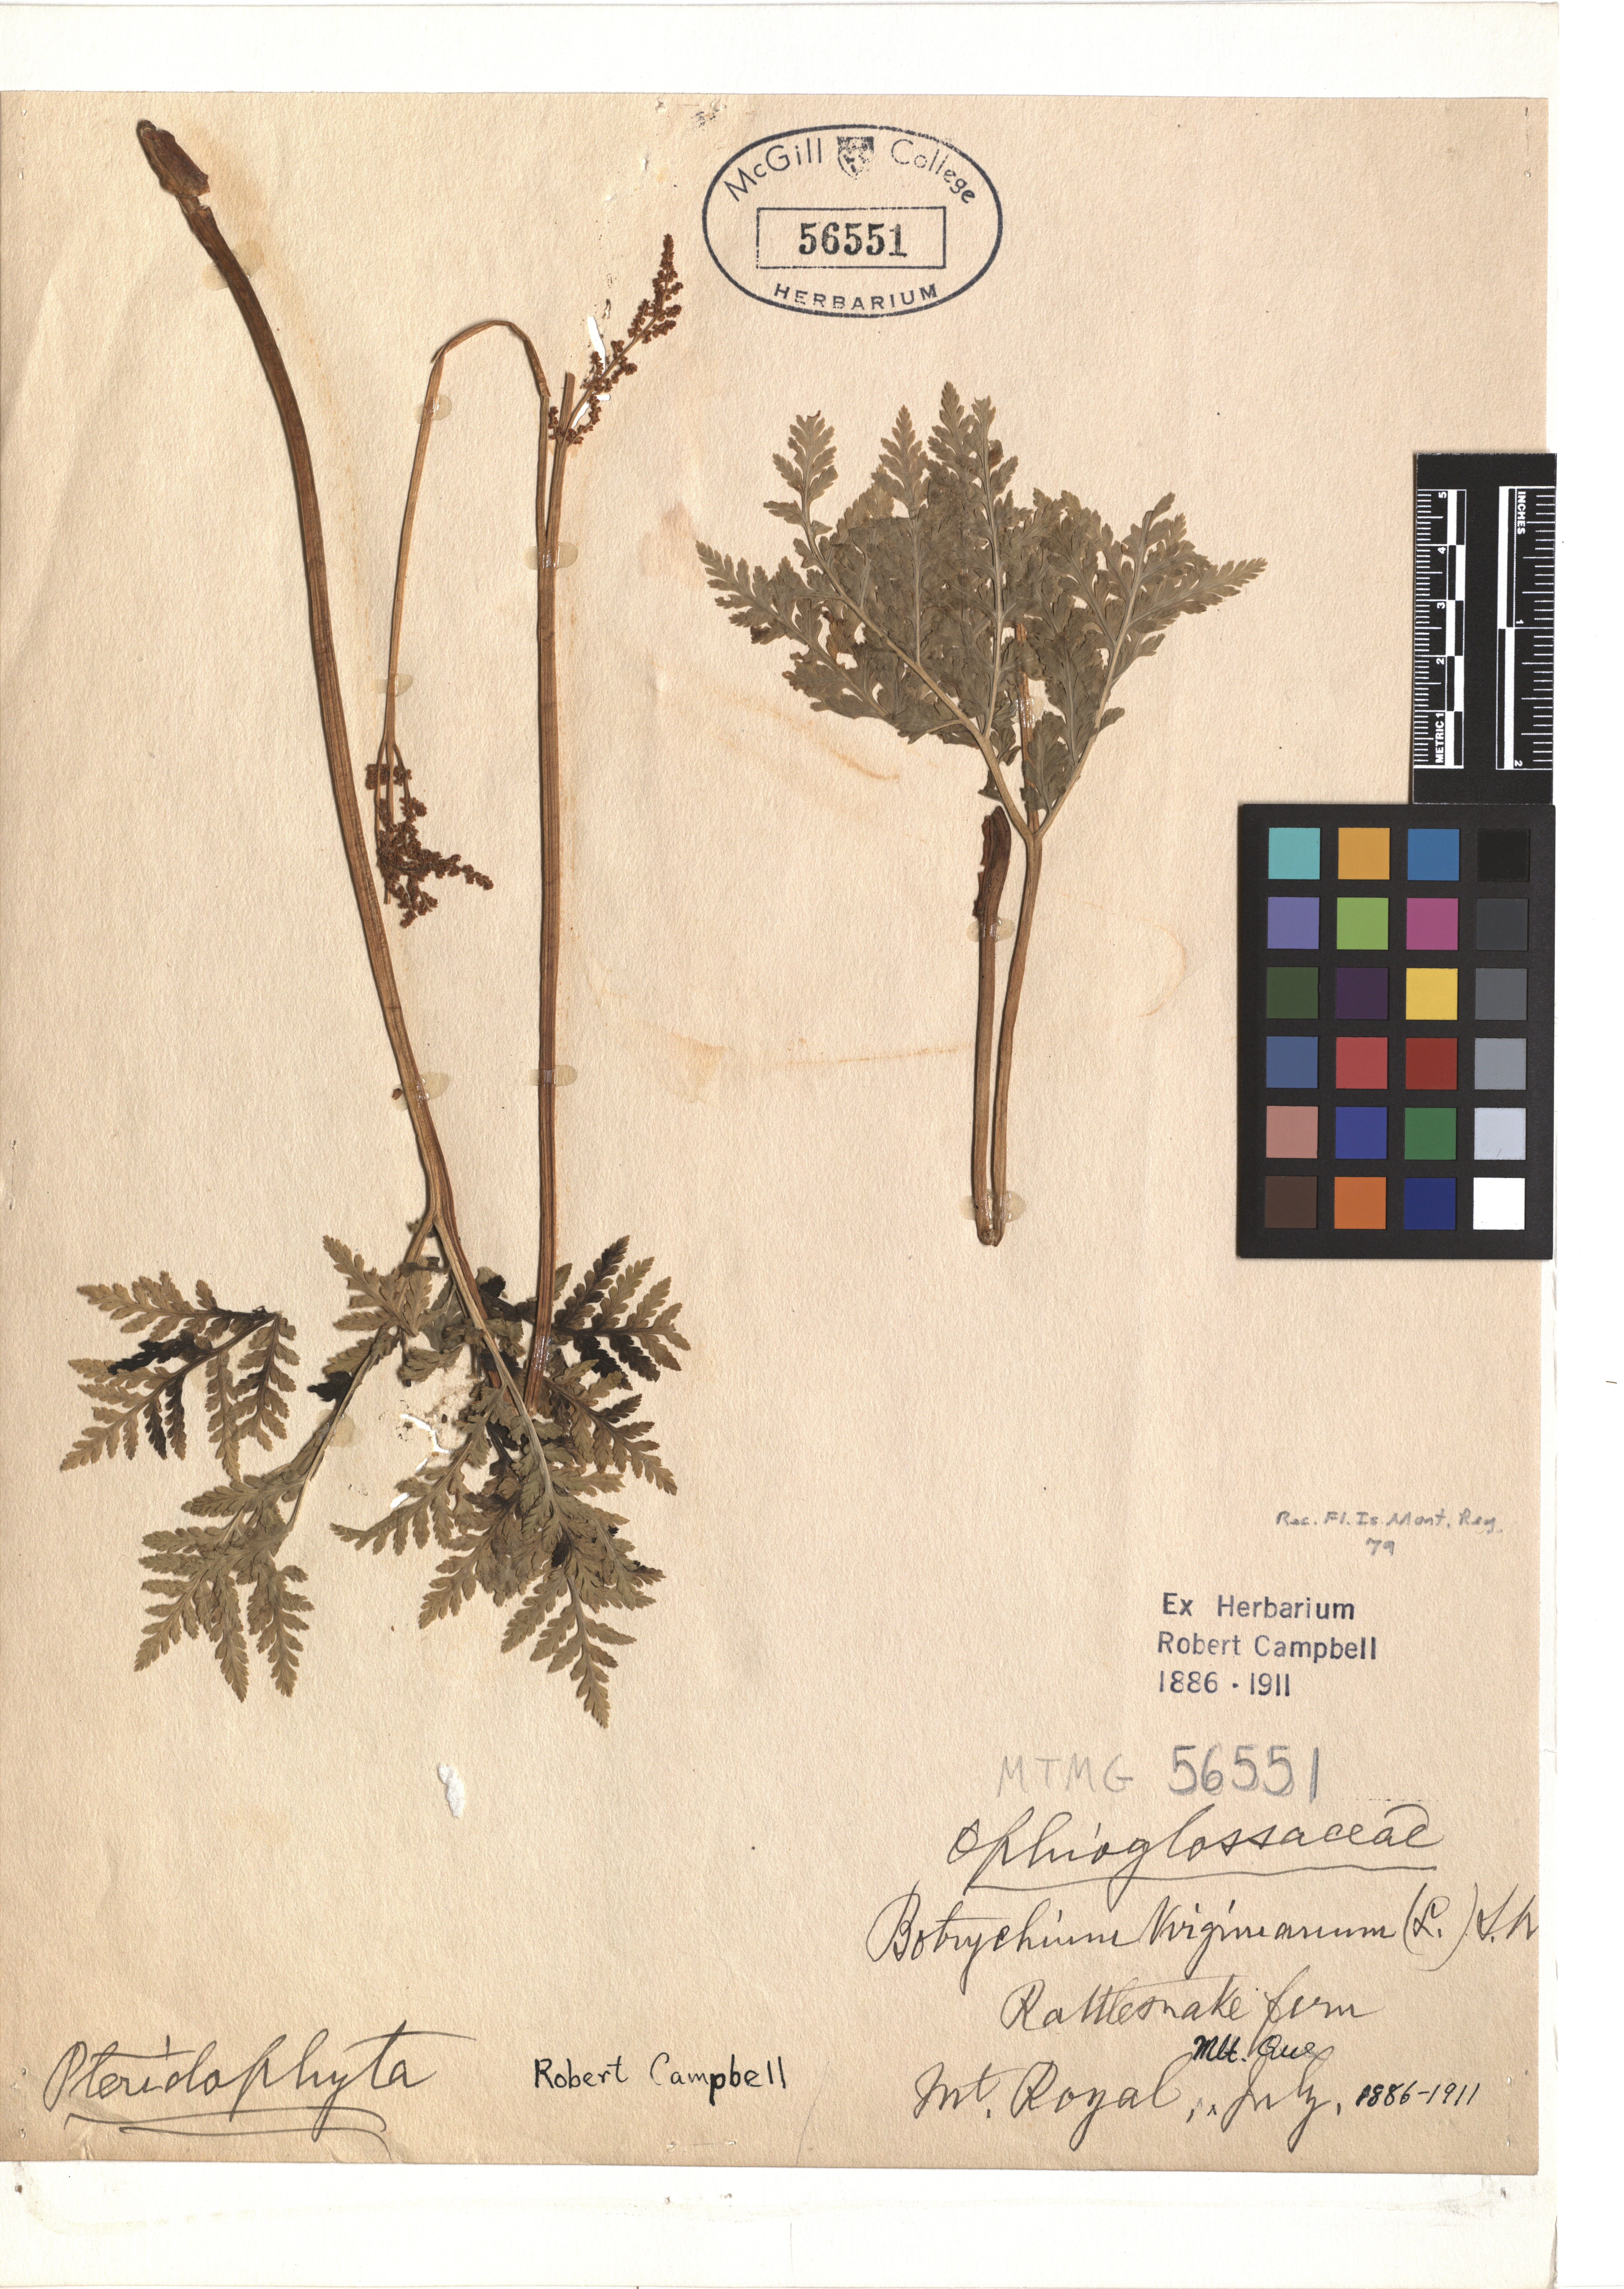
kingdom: Plantae
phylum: Tracheophyta
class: Polypodiopsida
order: Ophioglossales
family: Ophioglossaceae
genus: Botrypus
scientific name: Botrypus virginianus
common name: Common grapefern
